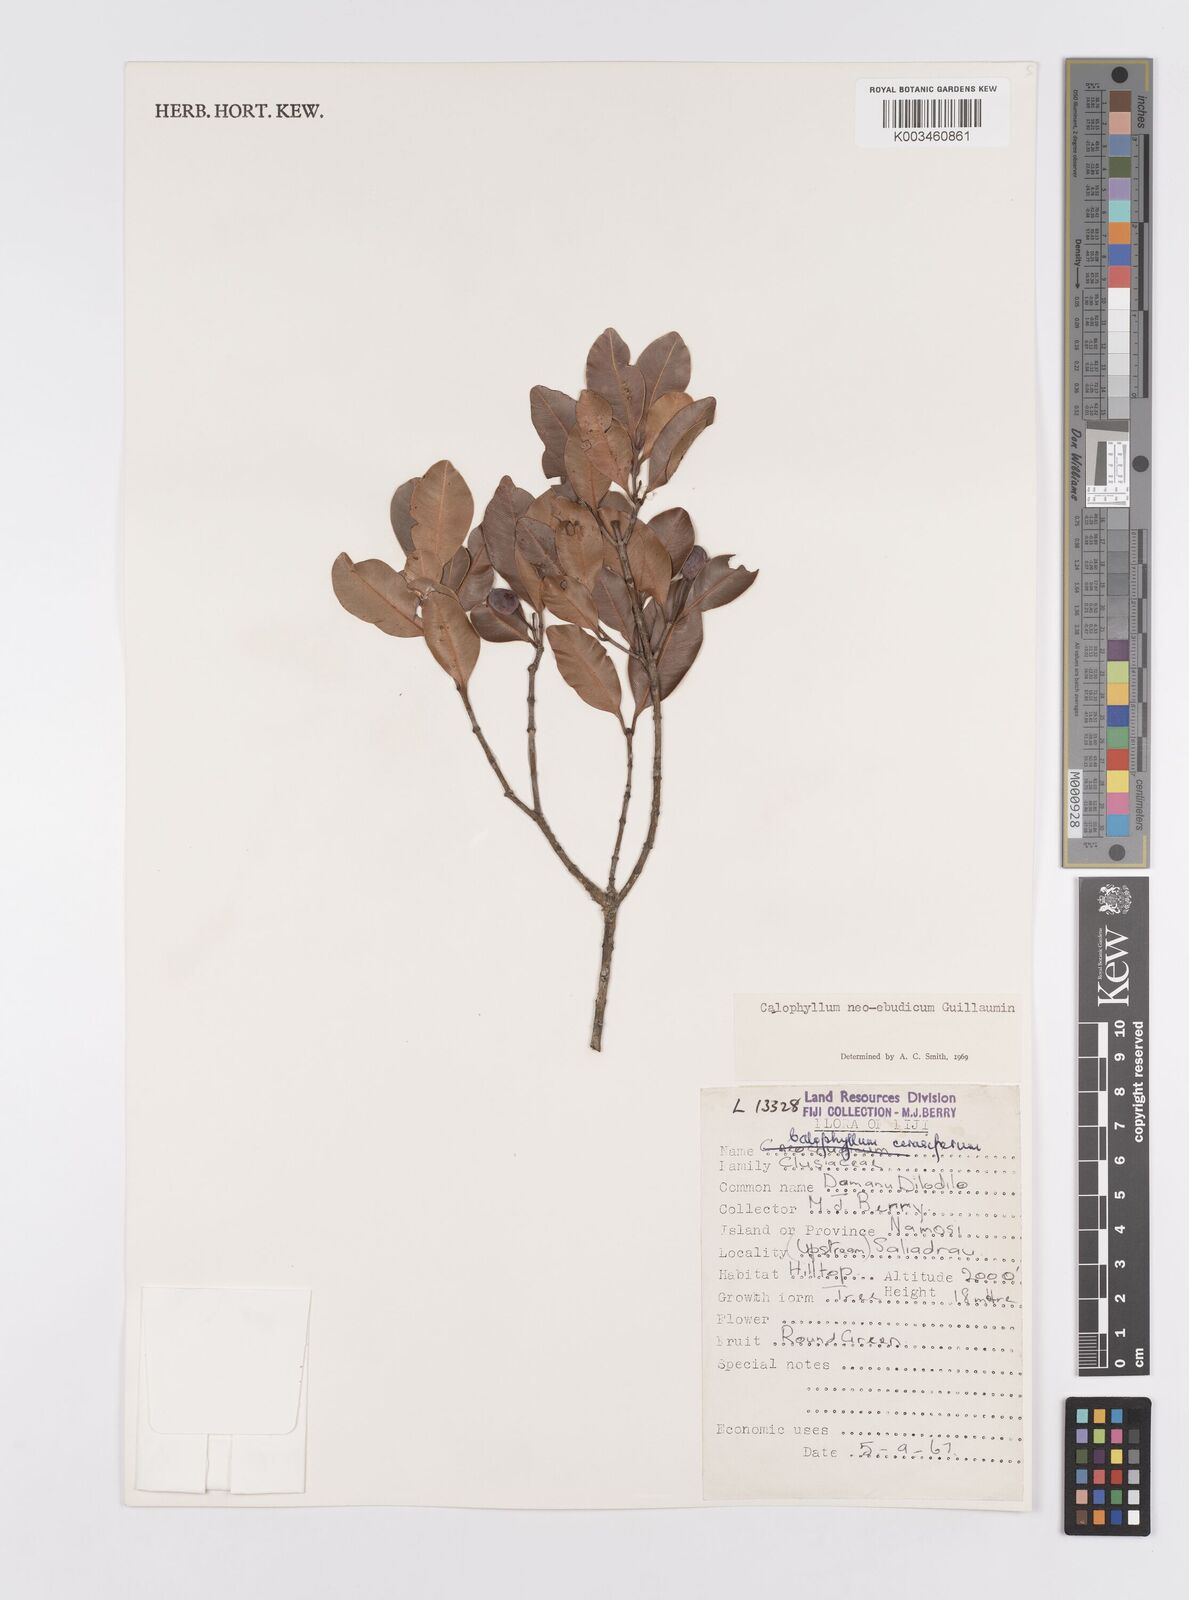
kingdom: Plantae
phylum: Tracheophyta
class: Magnoliopsida
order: Malpighiales
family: Calophyllaceae
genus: Calophyllum
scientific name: Calophyllum neoebudicum
